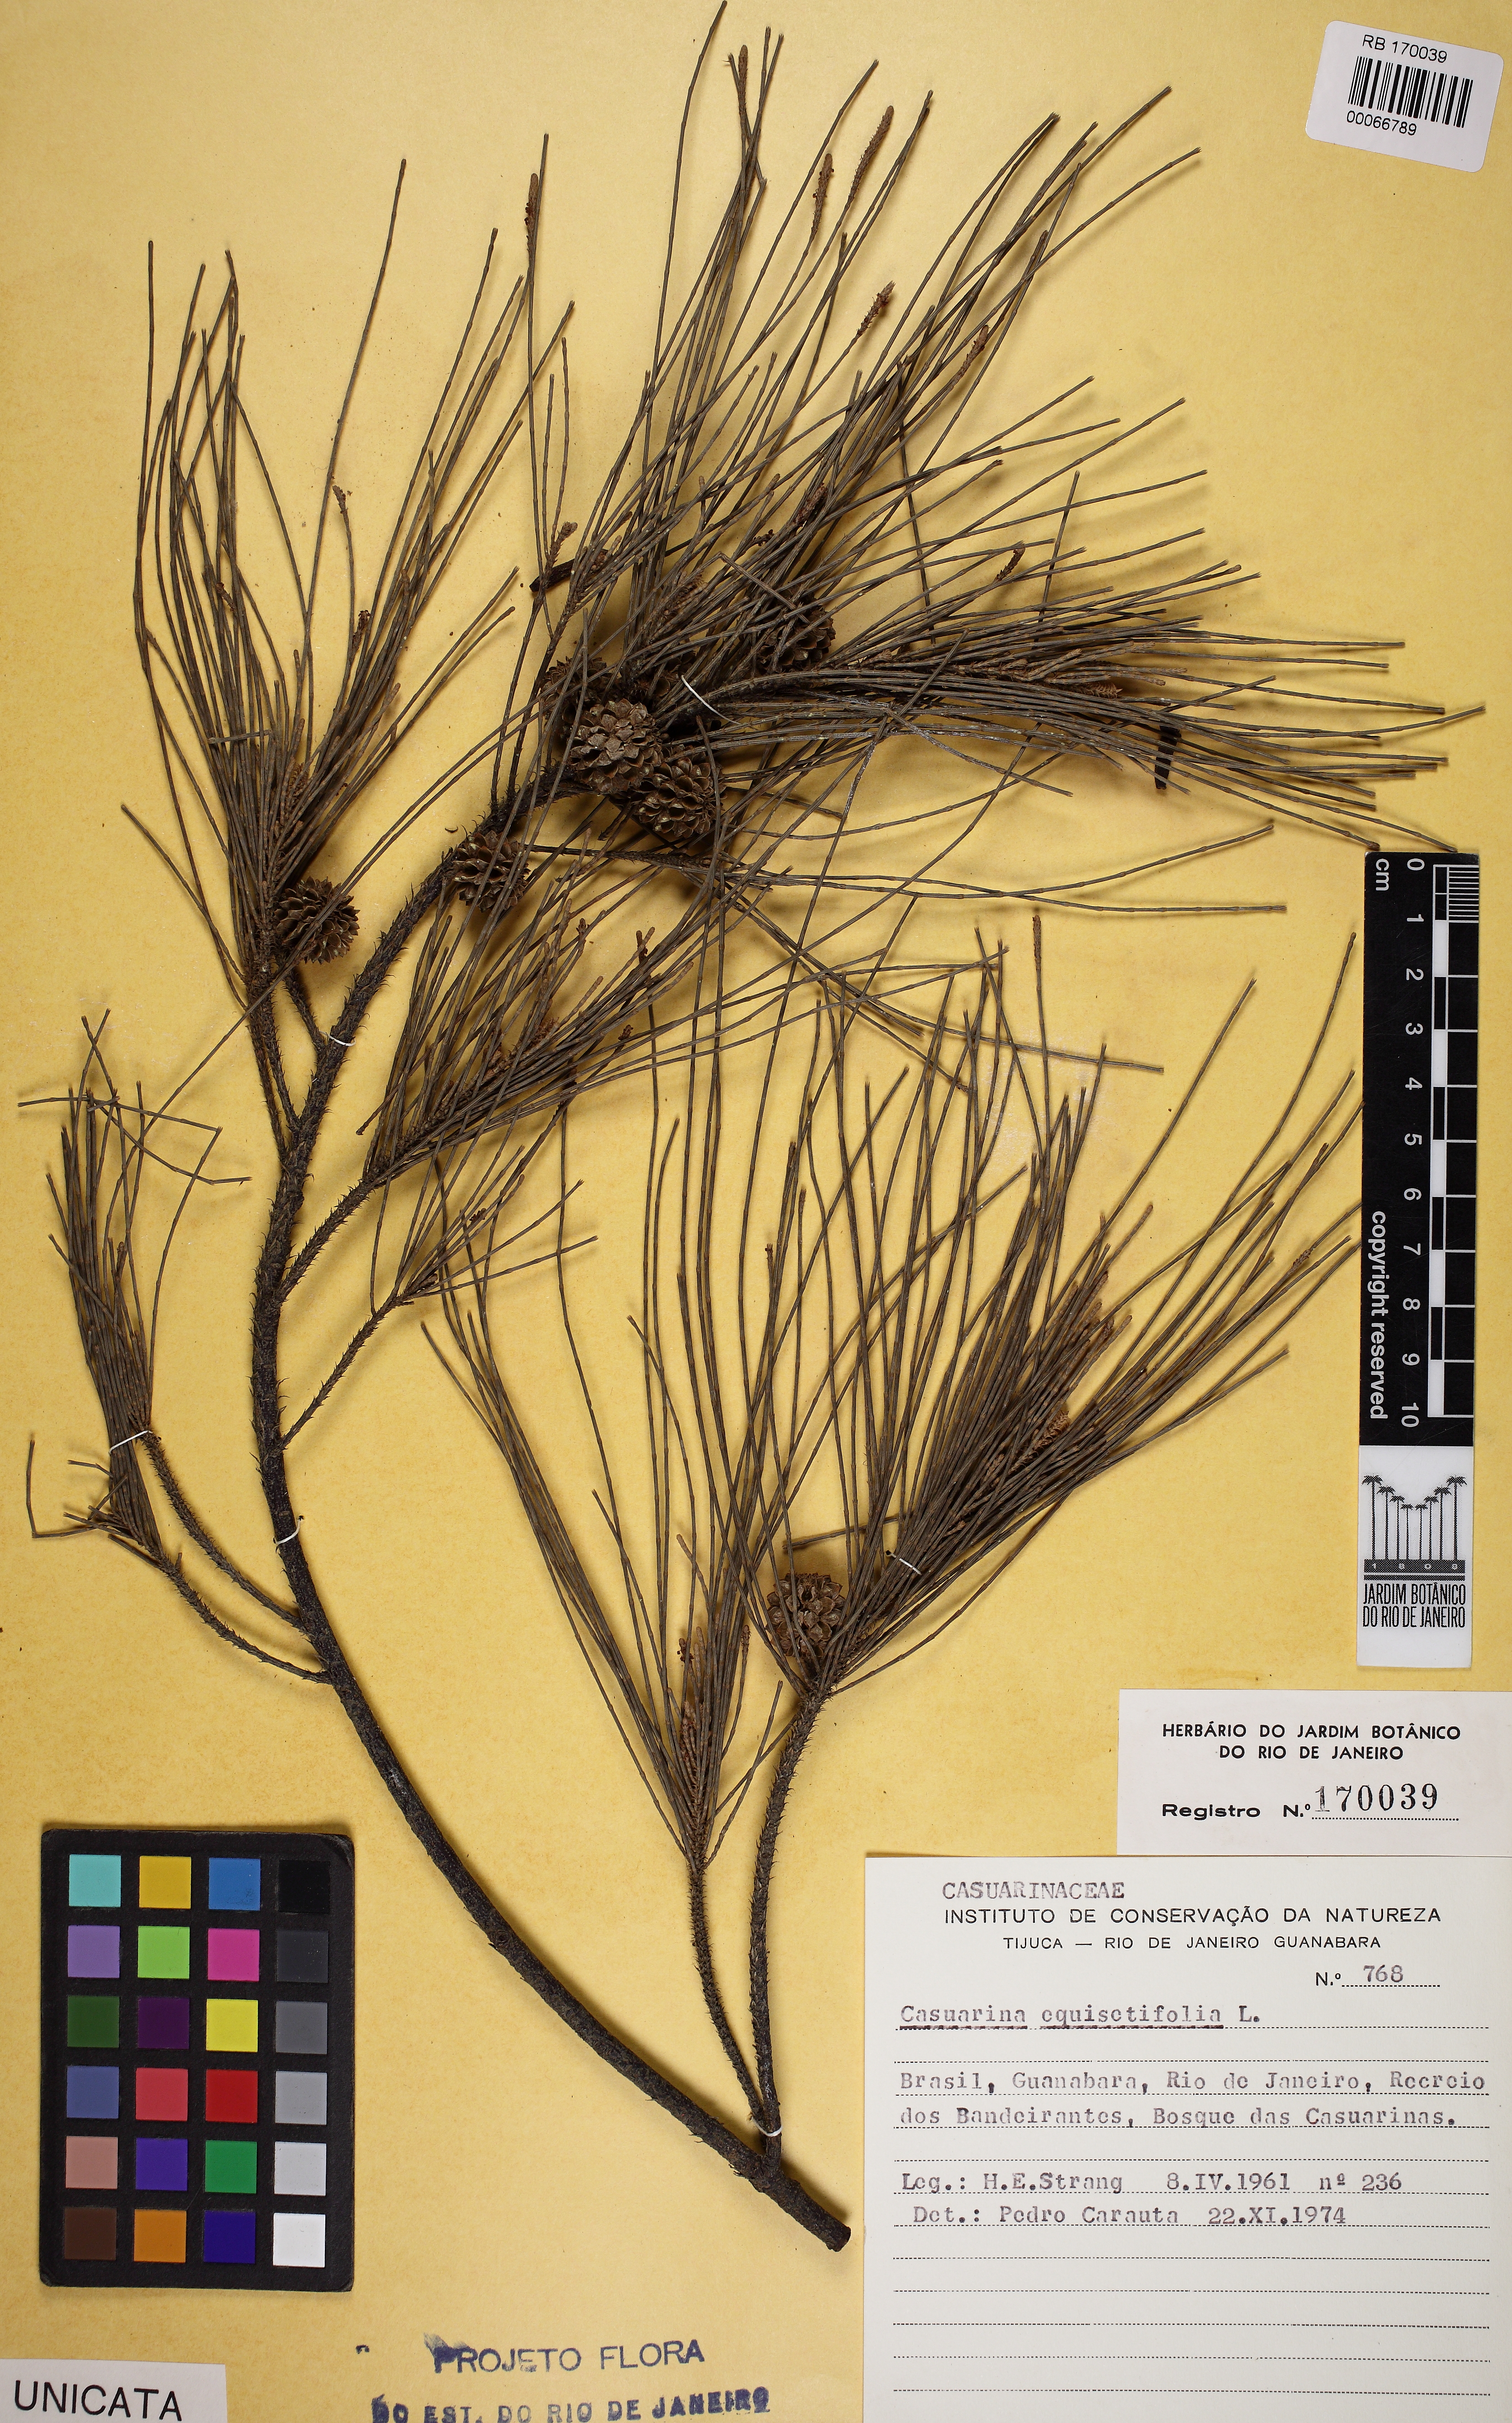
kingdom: Plantae
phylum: Tracheophyta
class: Magnoliopsida
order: Fagales
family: Casuarinaceae
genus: Casuarina
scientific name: Casuarina equisetifolia
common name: Beach sheoak
